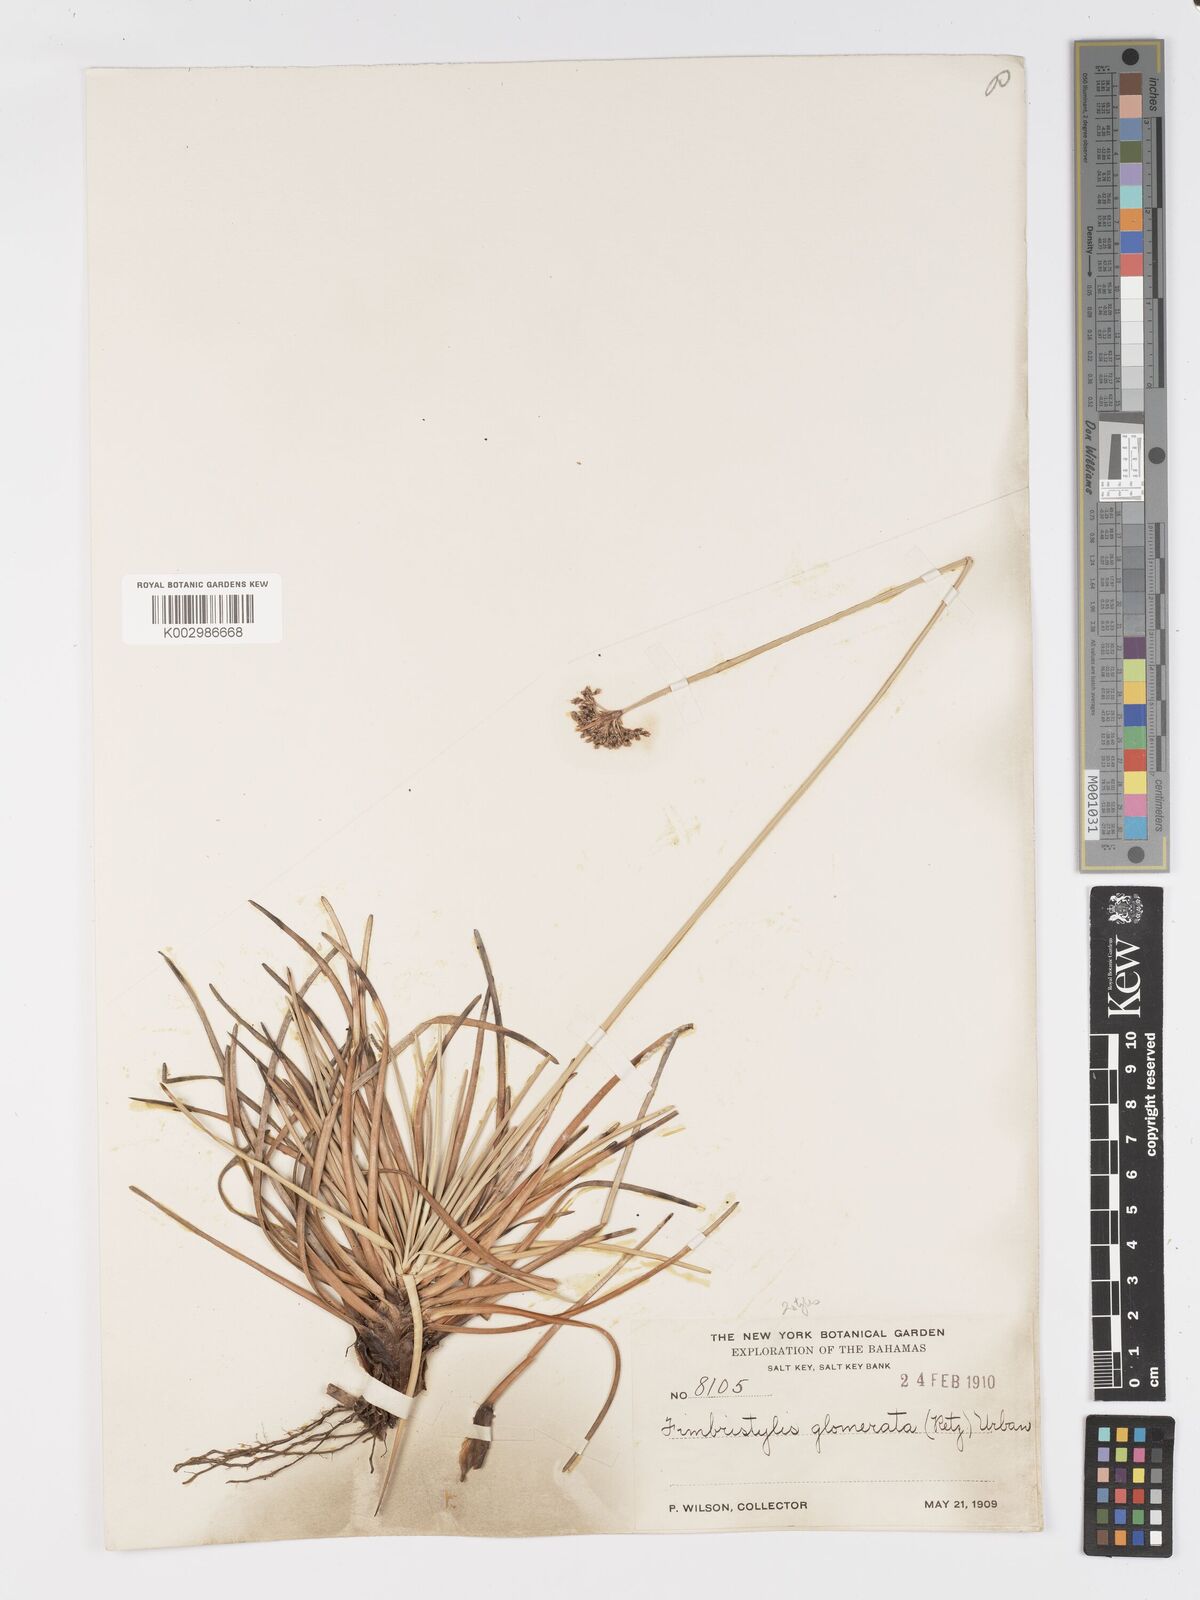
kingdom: Plantae
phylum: Tracheophyta
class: Liliopsida
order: Poales
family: Cyperaceae
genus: Fimbristylis
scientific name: Fimbristylis cymosa
